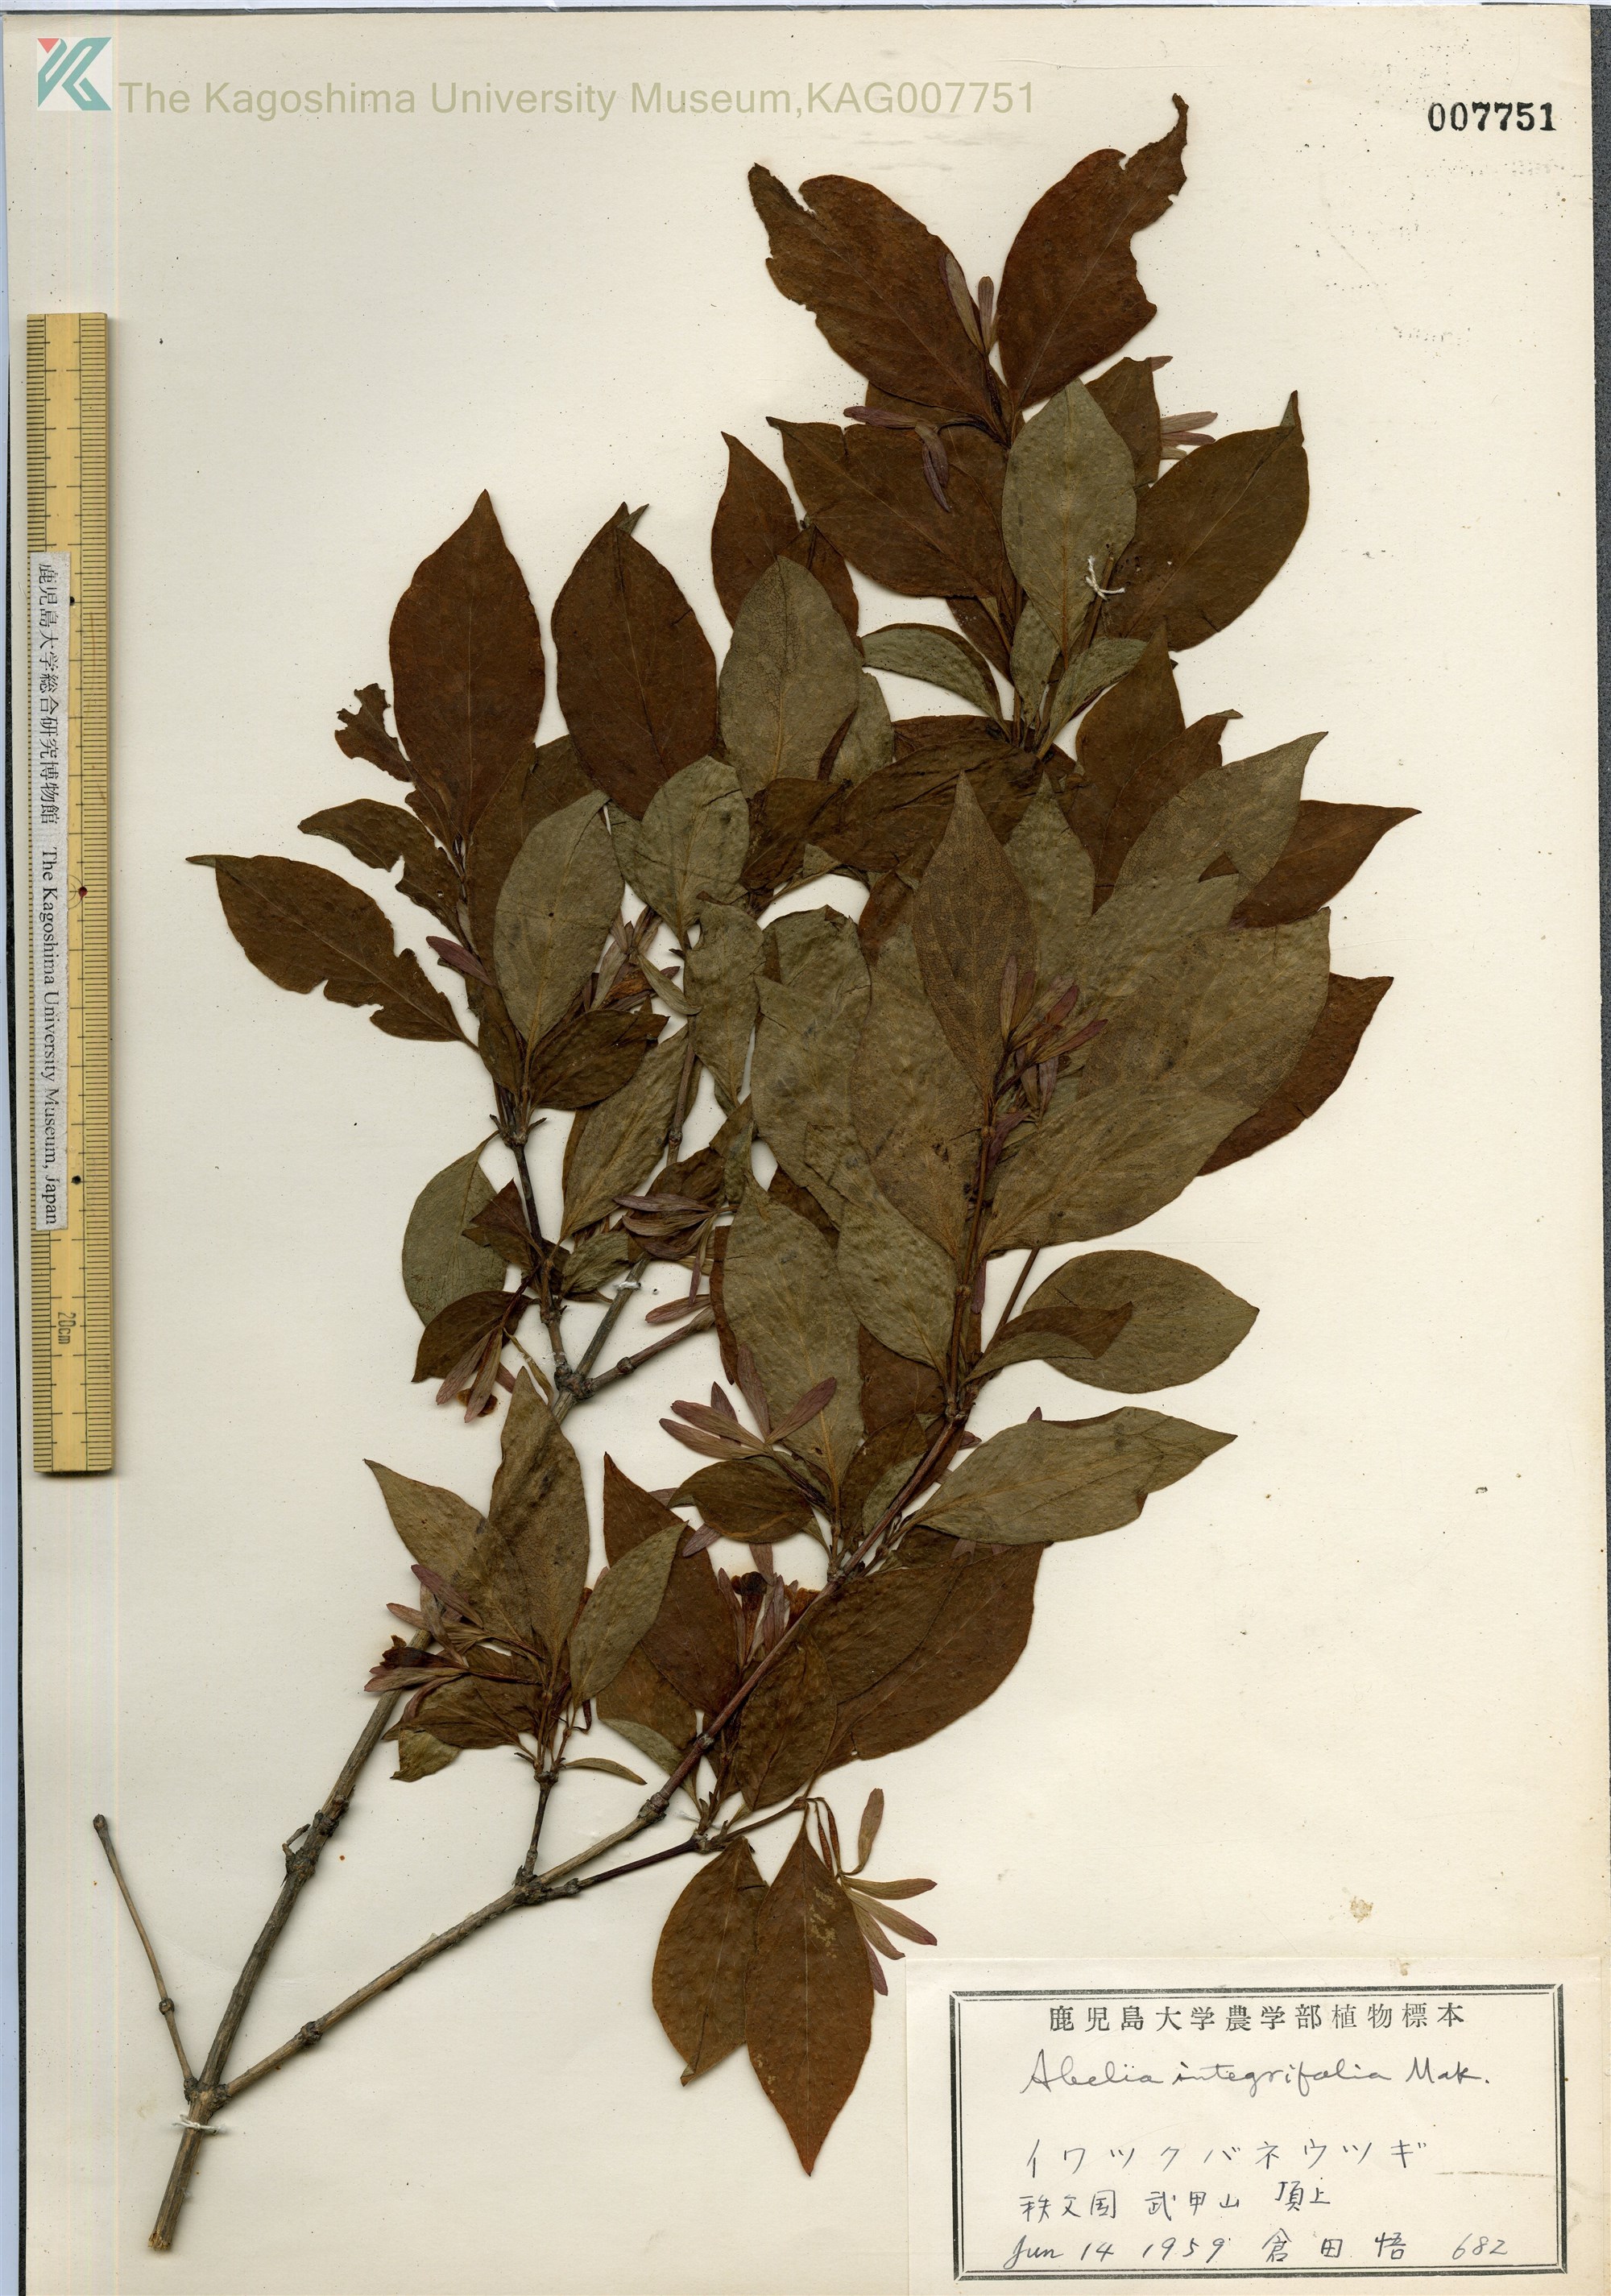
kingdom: Plantae
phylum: Tracheophyta
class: Magnoliopsida
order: Dipsacales
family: Caprifoliaceae
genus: Zabelia
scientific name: Zabelia integrifolia
